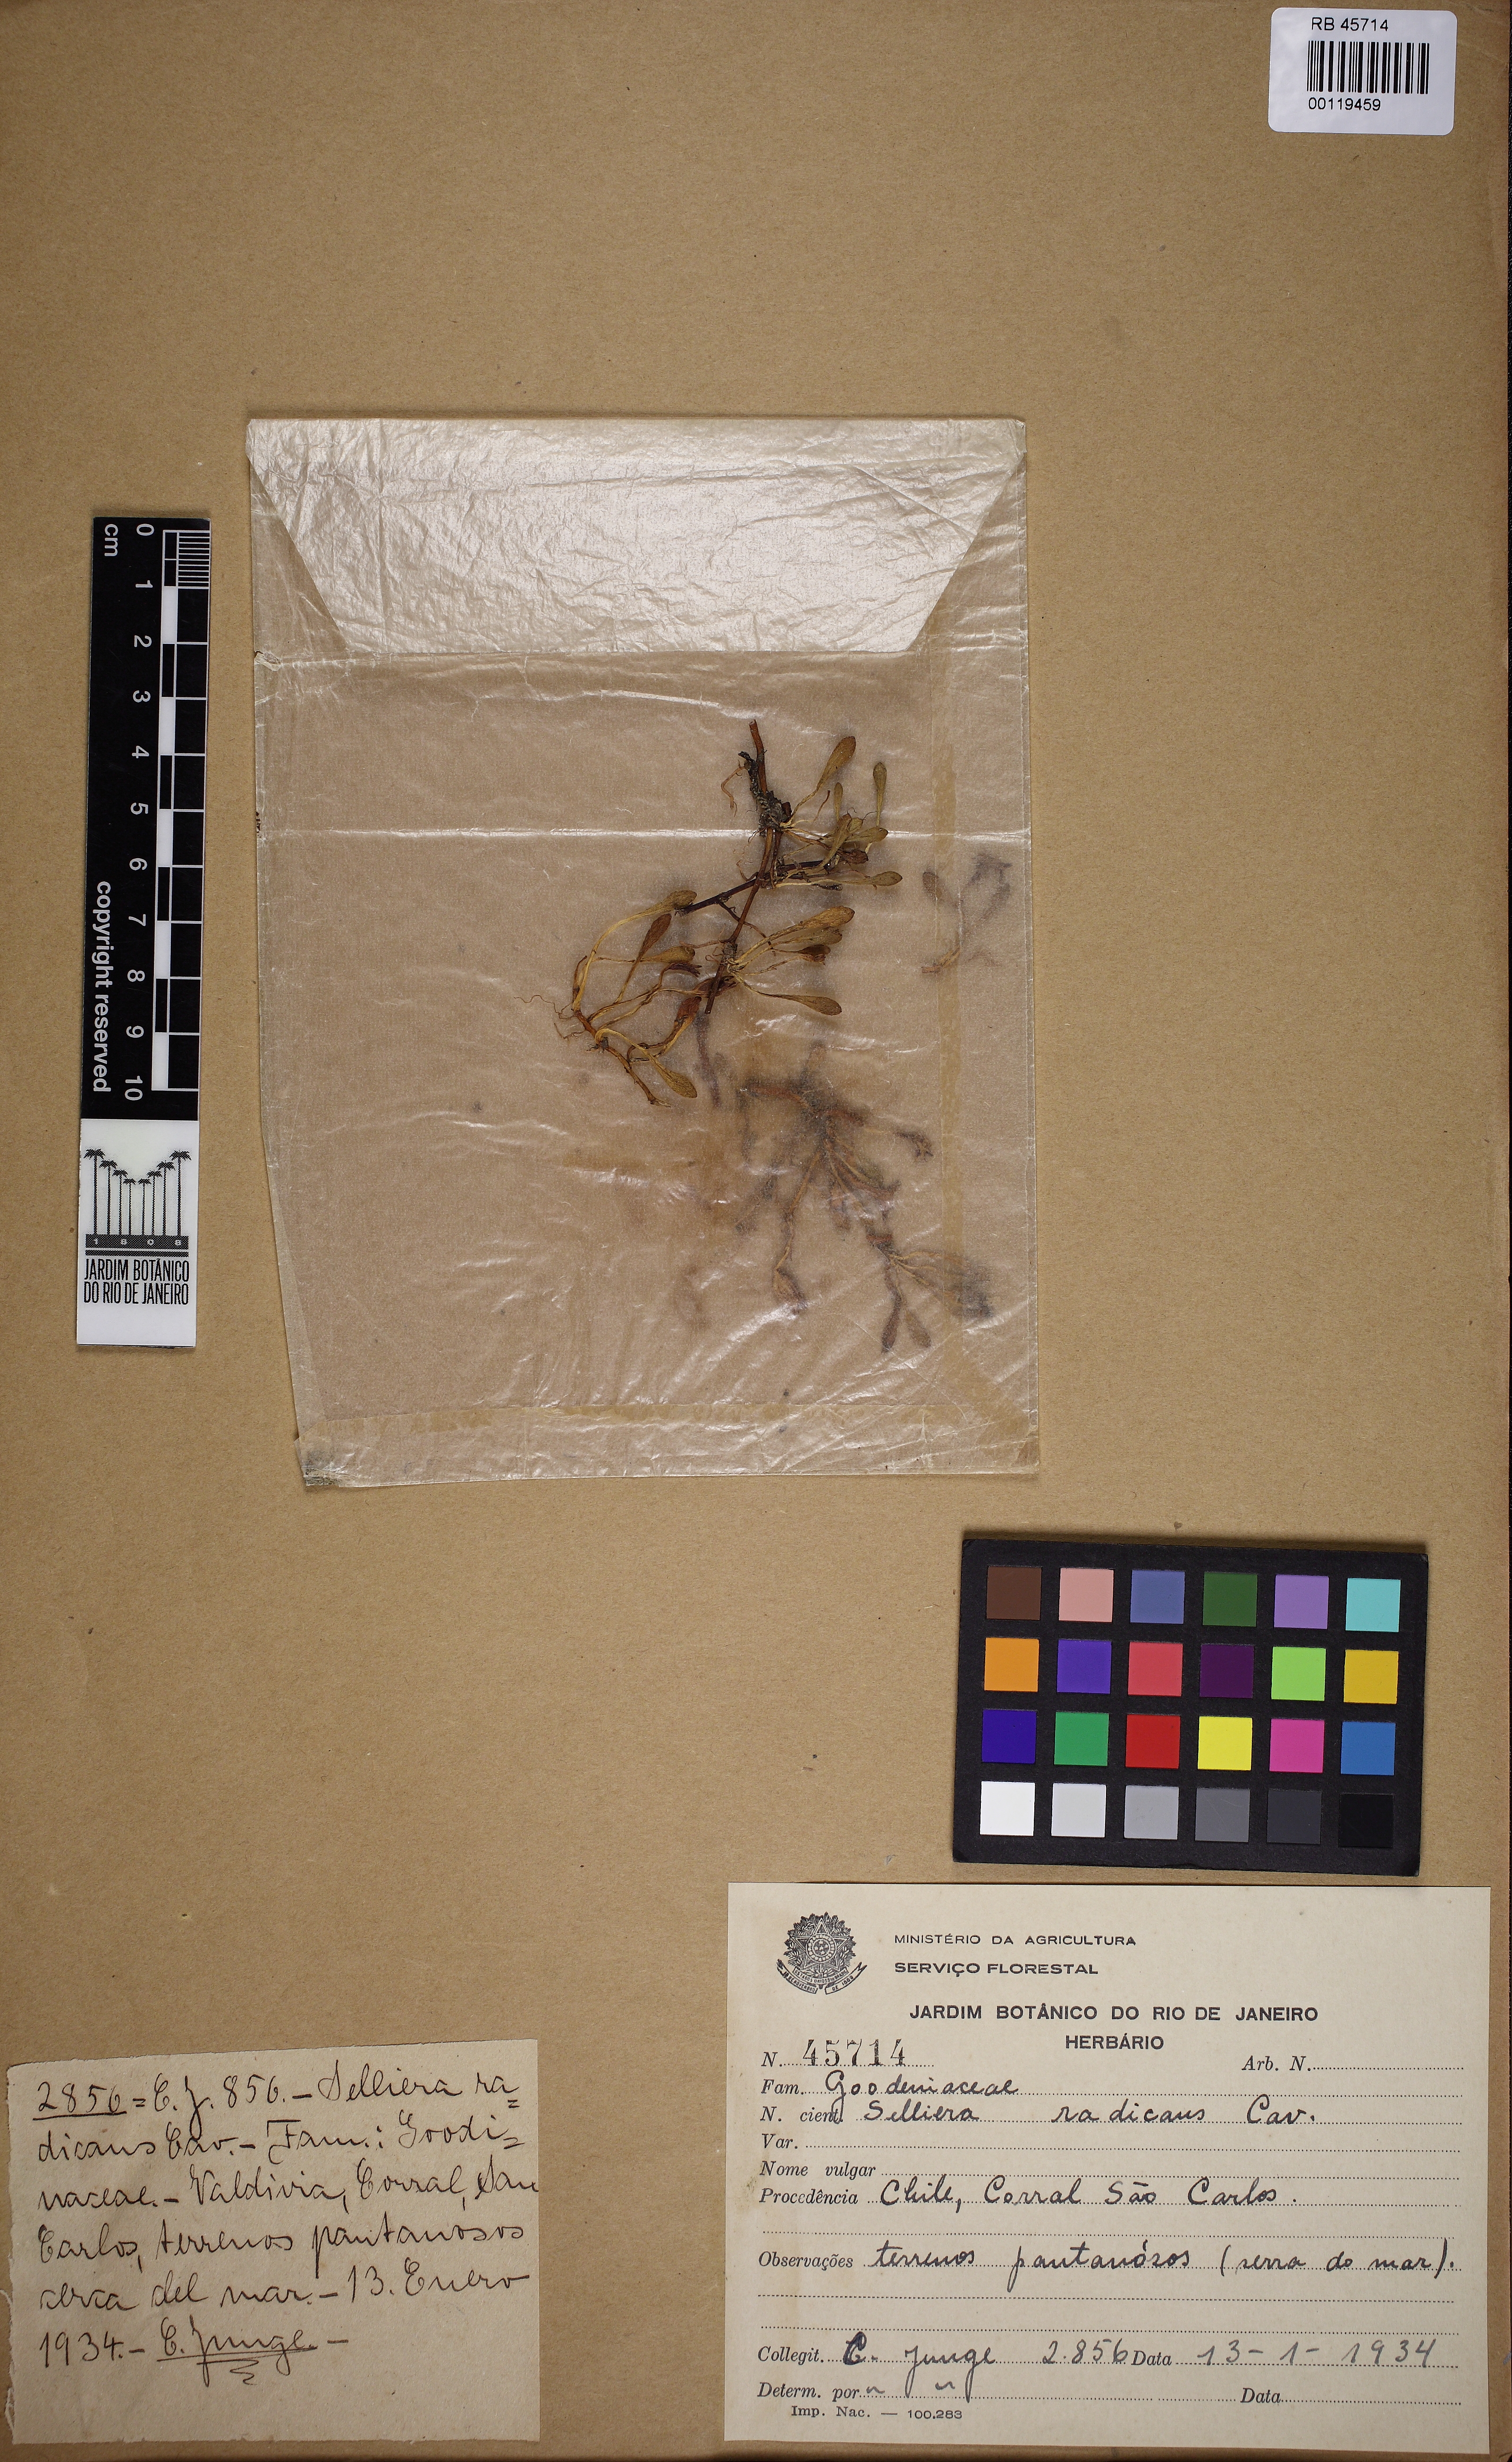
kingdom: Plantae
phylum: Tracheophyta
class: Magnoliopsida
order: Asterales
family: Goodeniaceae
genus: Goodenia
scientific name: Goodenia radicans
